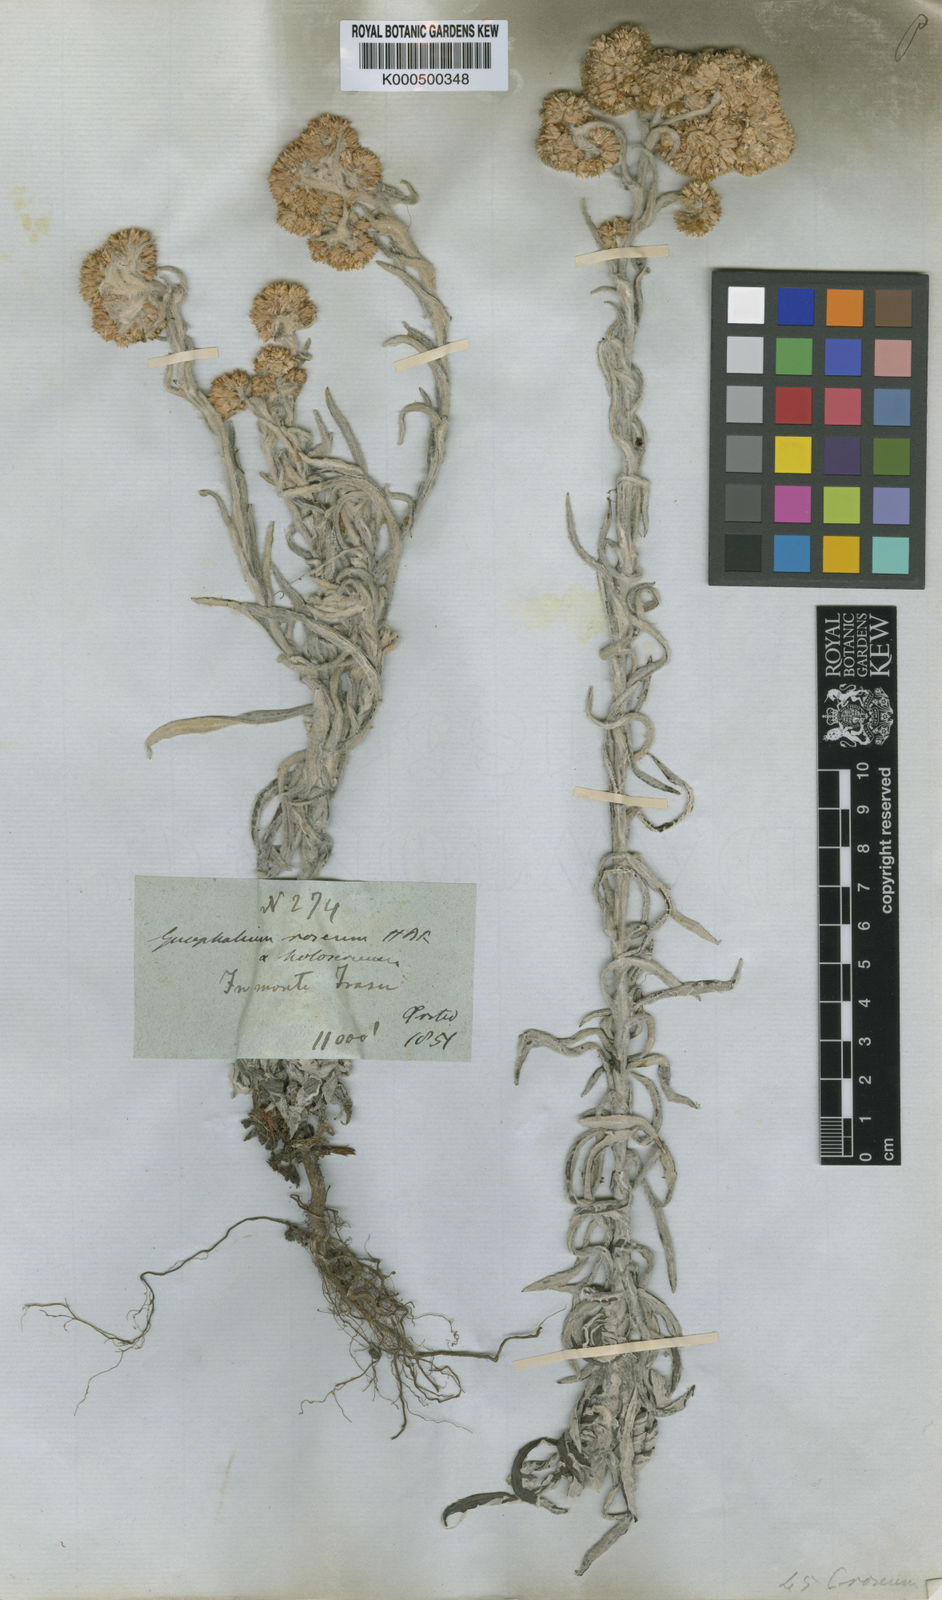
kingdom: Plantae
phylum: Tracheophyta
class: Magnoliopsida
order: Asterales
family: Asteraceae
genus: Pseudognaphalium
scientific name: Pseudognaphalium attenuatum
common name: Tapered cudweed
